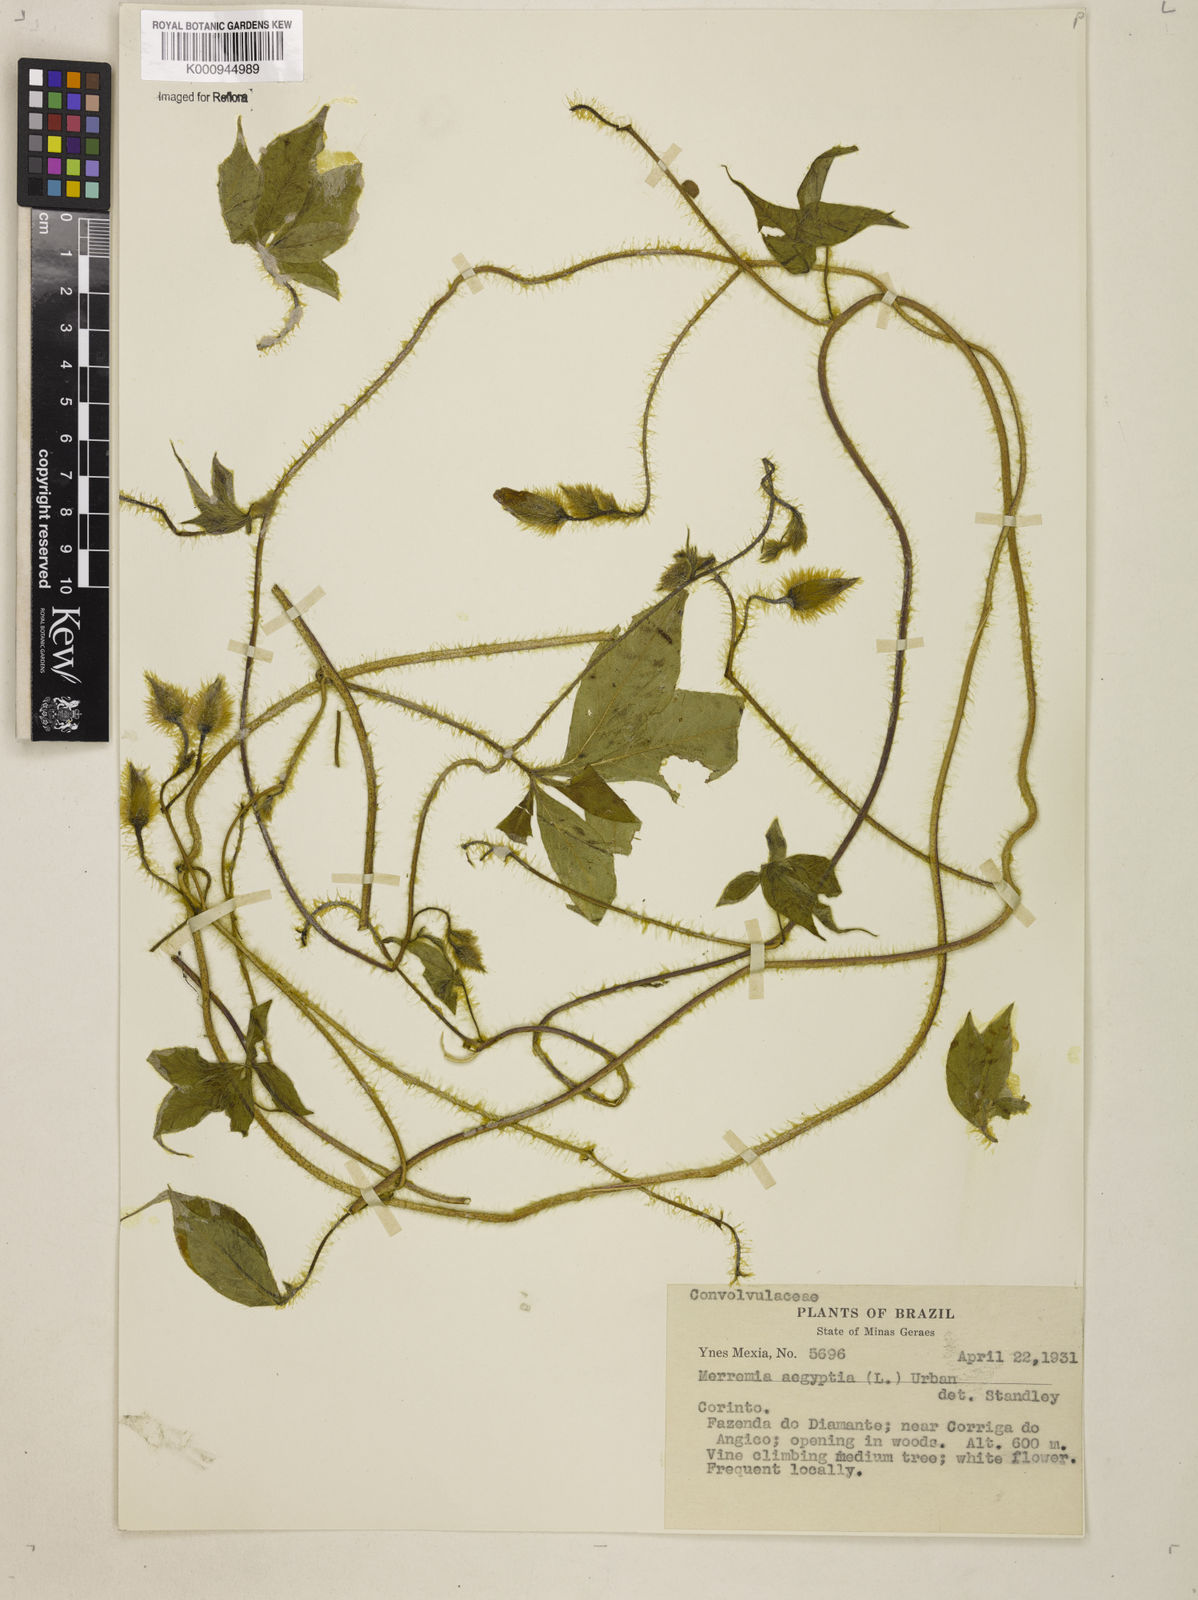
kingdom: Plantae
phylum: Tracheophyta
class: Magnoliopsida
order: Solanales
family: Convolvulaceae
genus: Distimake
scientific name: Distimake aegyptius
